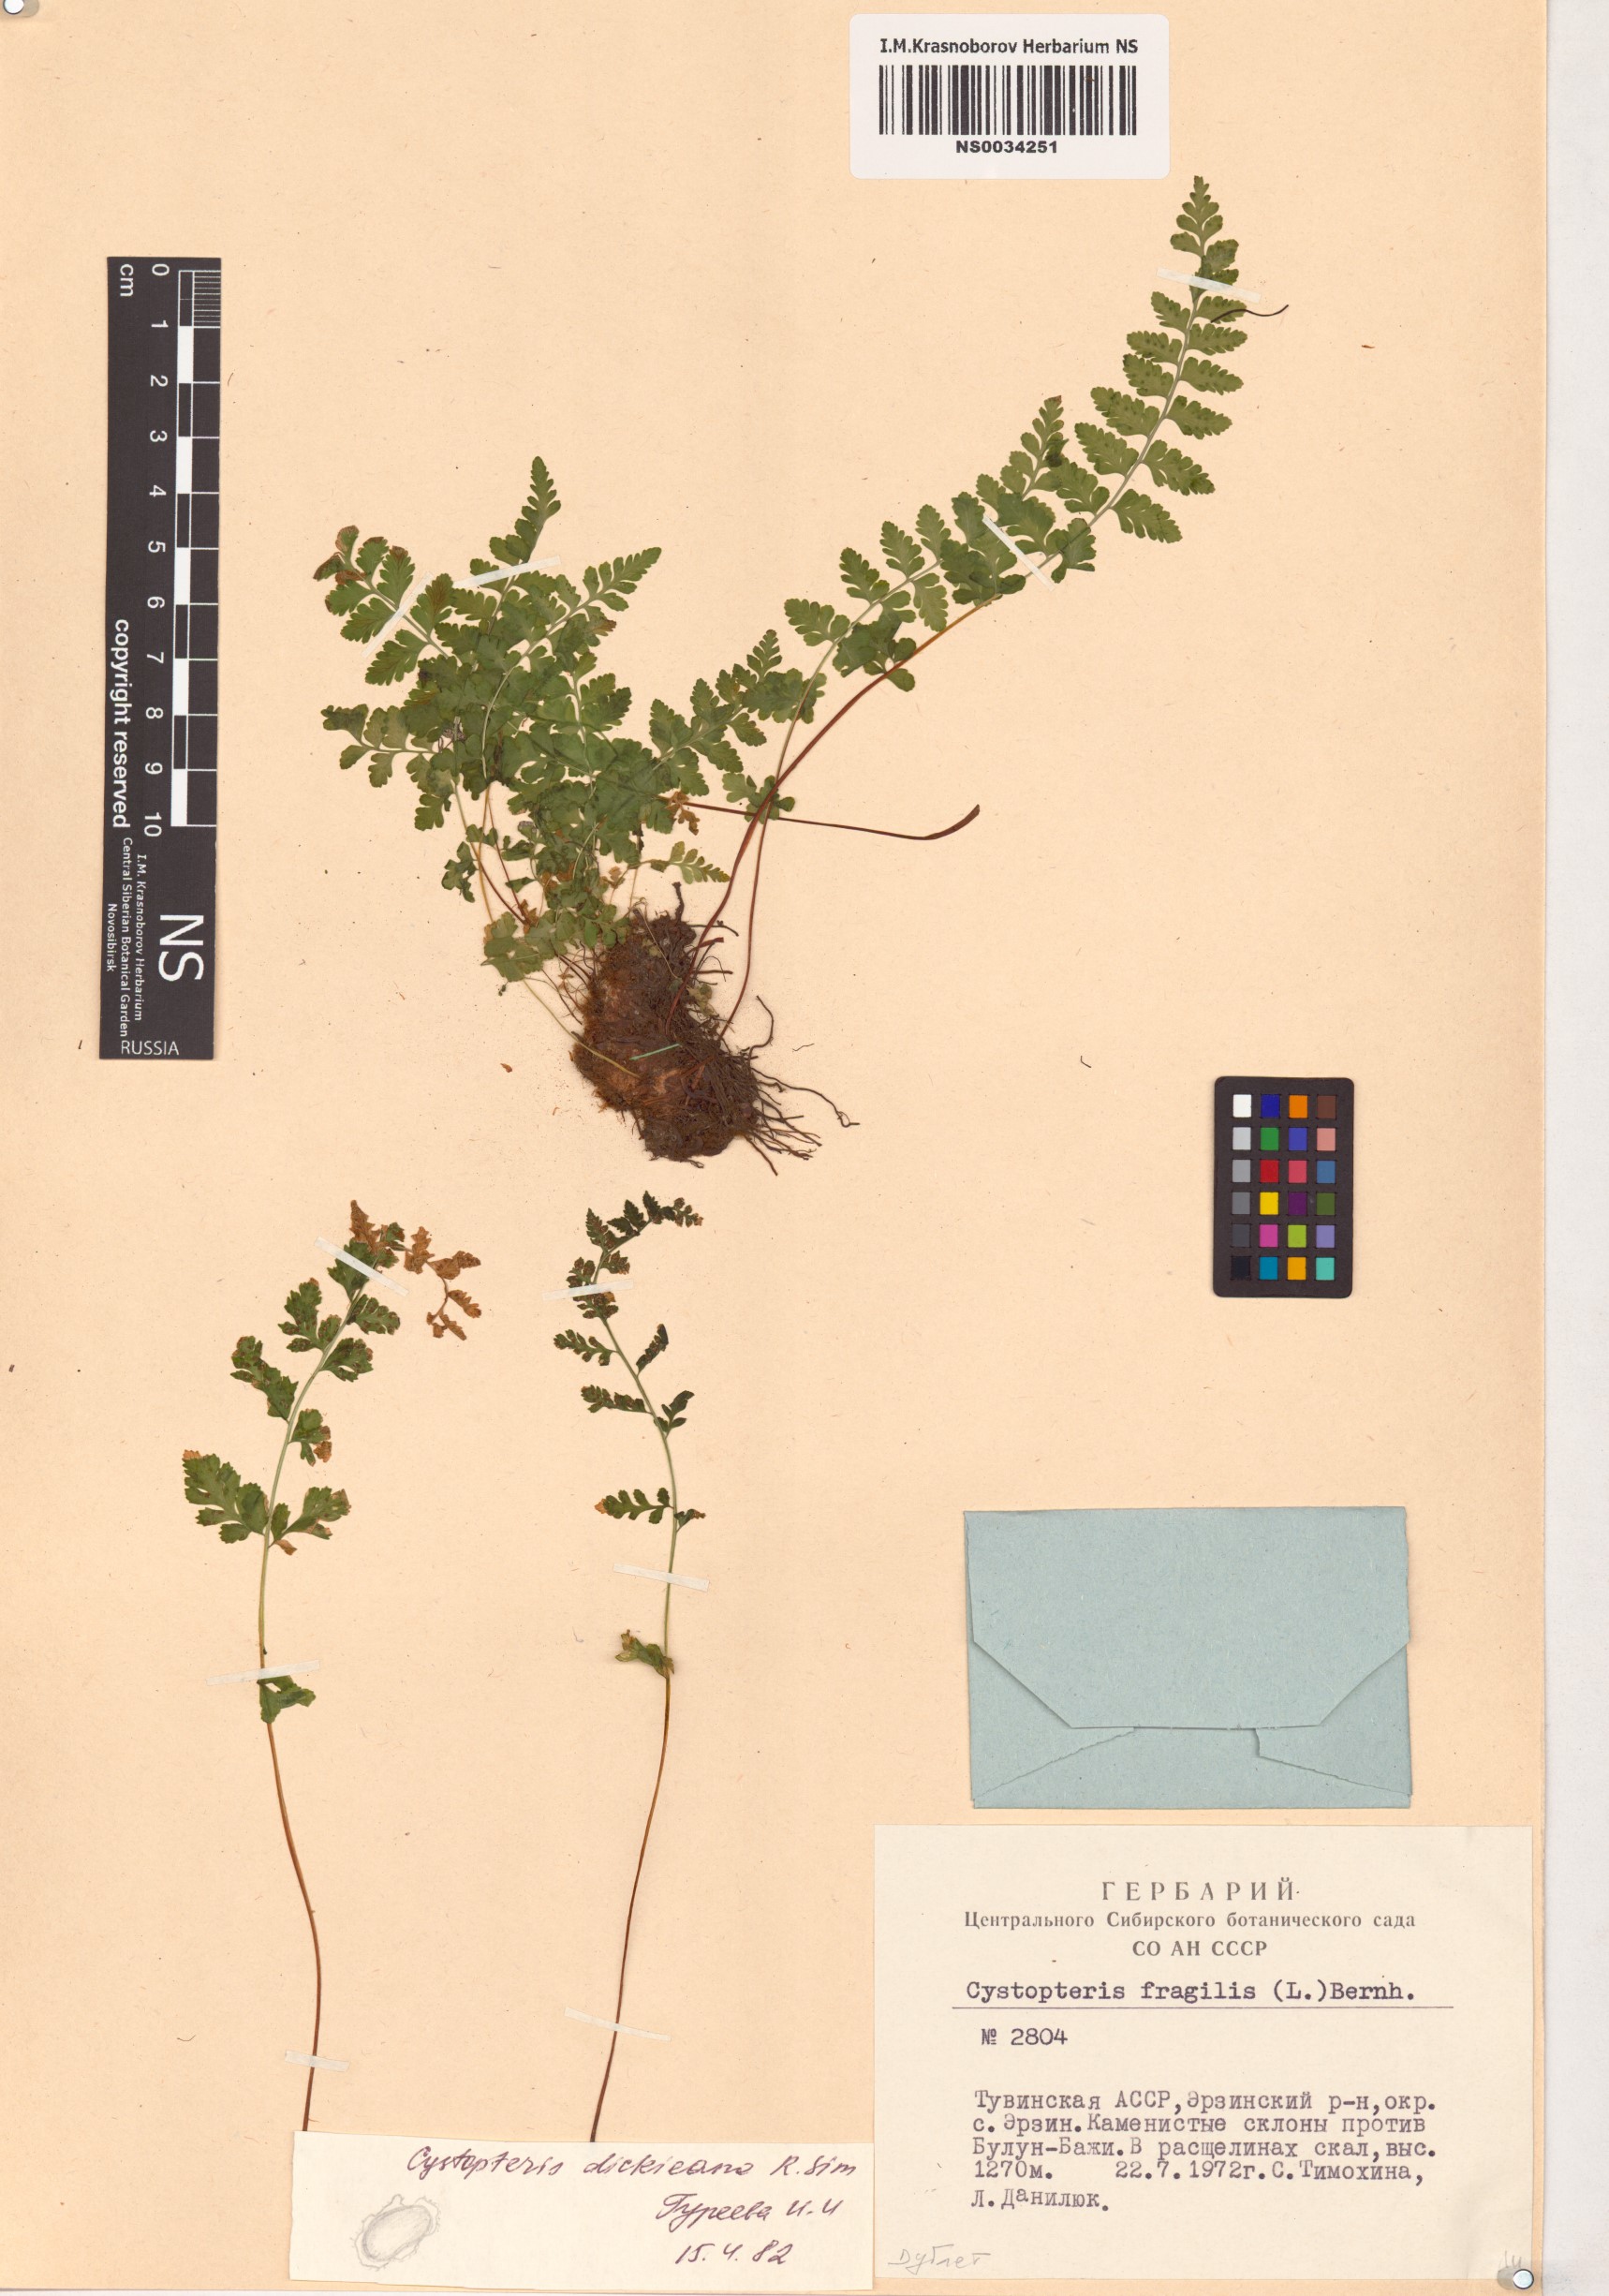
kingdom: Plantae
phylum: Tracheophyta
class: Polypodiopsida
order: Polypodiales
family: Cystopteridaceae
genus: Cystopteris
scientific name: Cystopteris dickieana
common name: Dickie's bladder-fern
